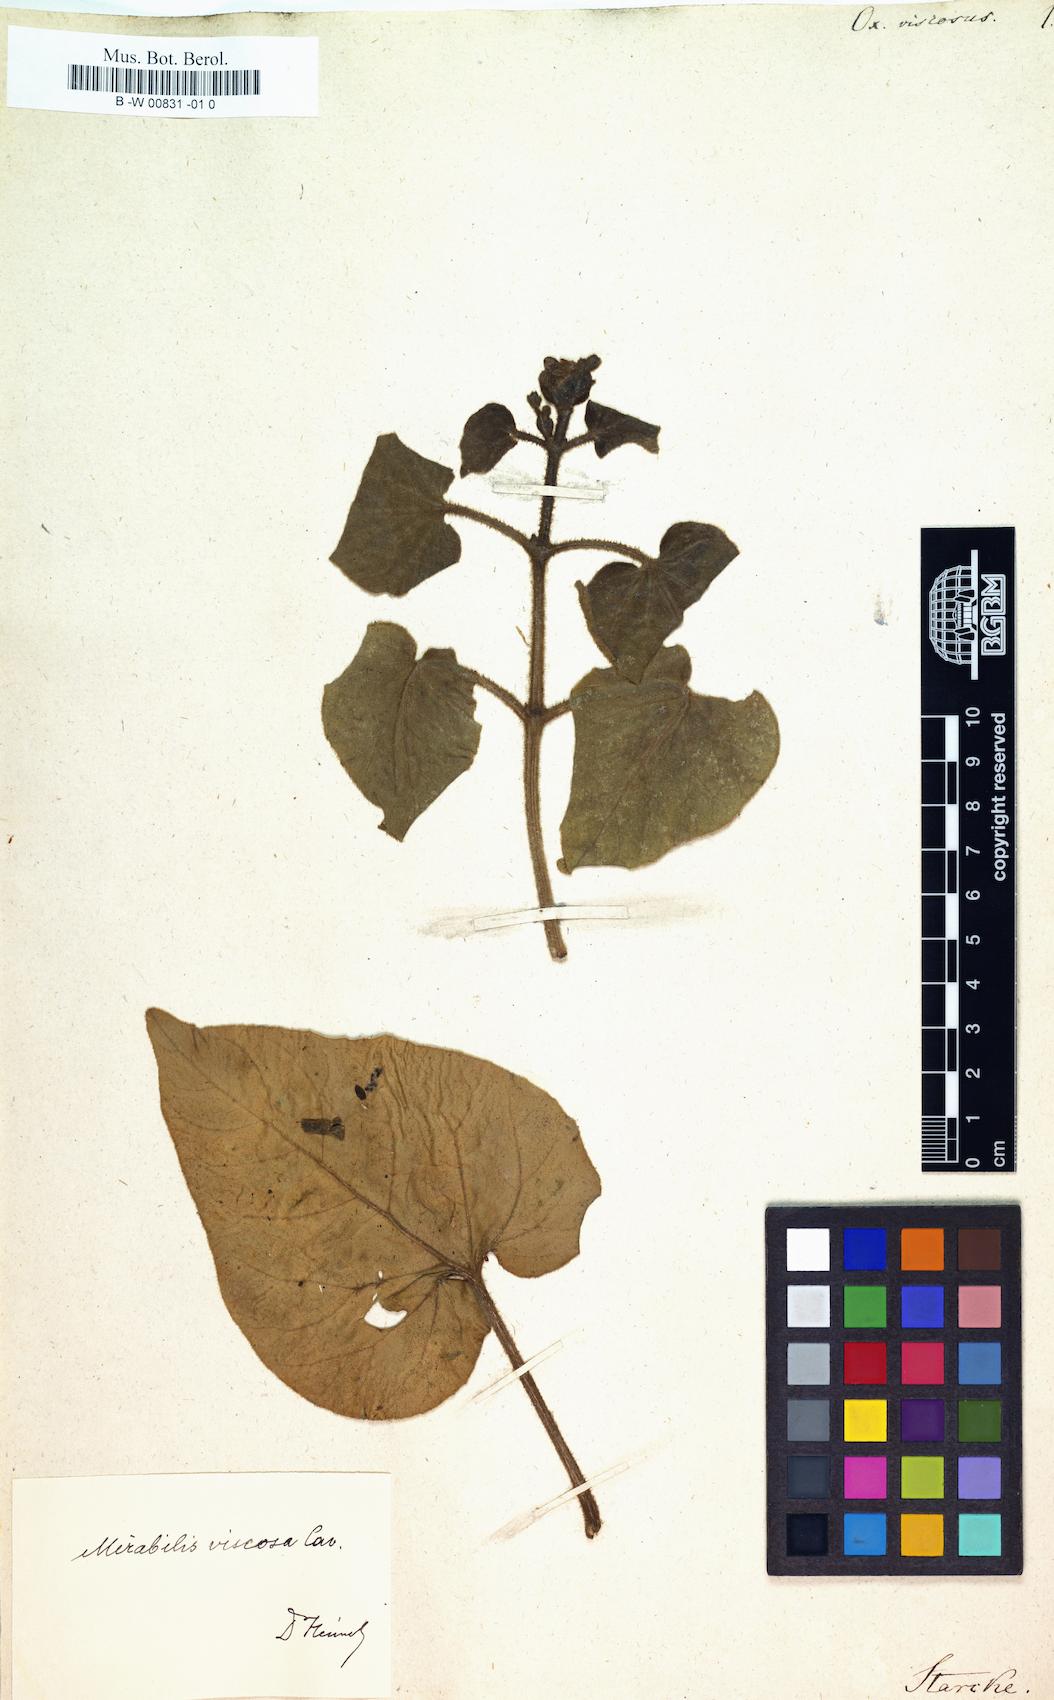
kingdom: Plantae
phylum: Tracheophyta
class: Magnoliopsida
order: Caryophyllales
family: Nyctaginaceae
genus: Mirabilis
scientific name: Mirabilis viscosa
